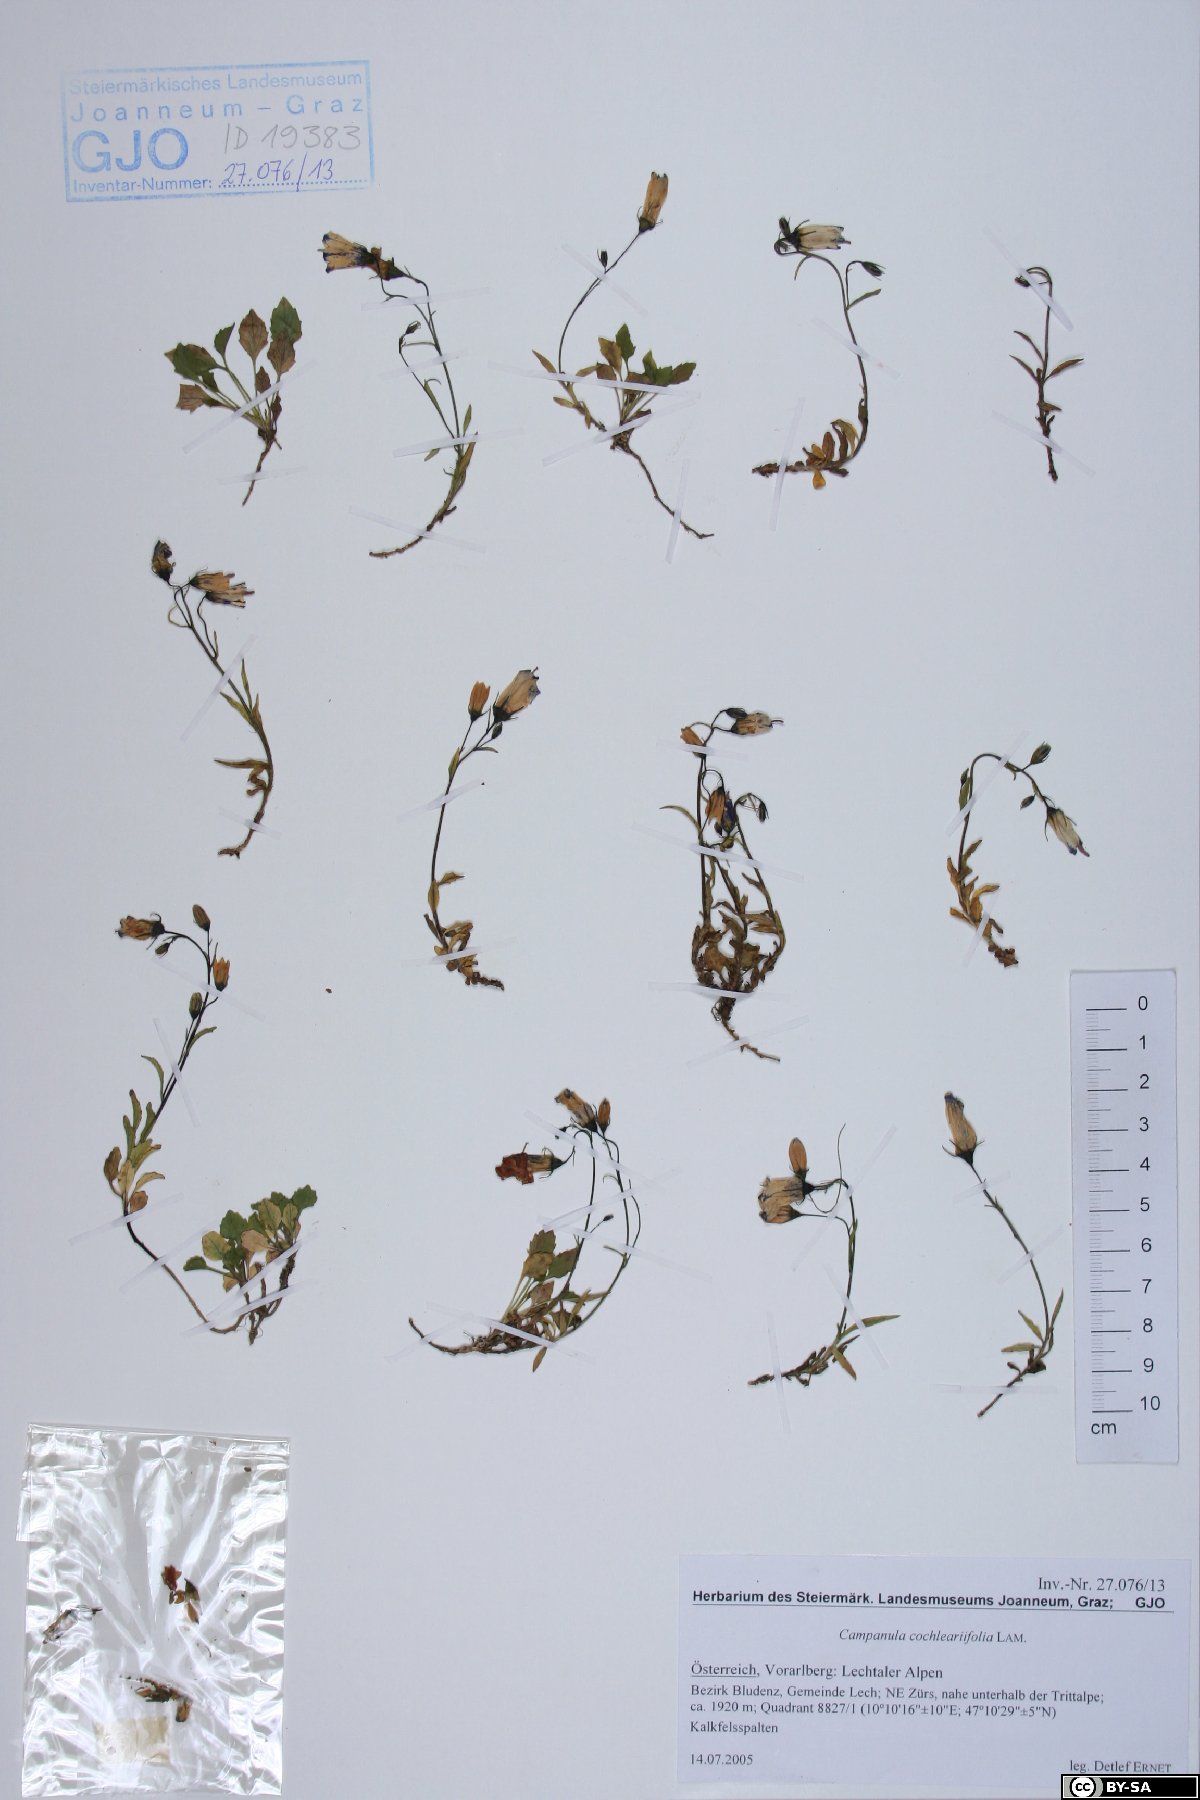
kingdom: Plantae
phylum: Tracheophyta
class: Magnoliopsida
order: Asterales
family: Campanulaceae
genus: Campanula
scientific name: Campanula cochleariifolia
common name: Fairies'-thimbles
